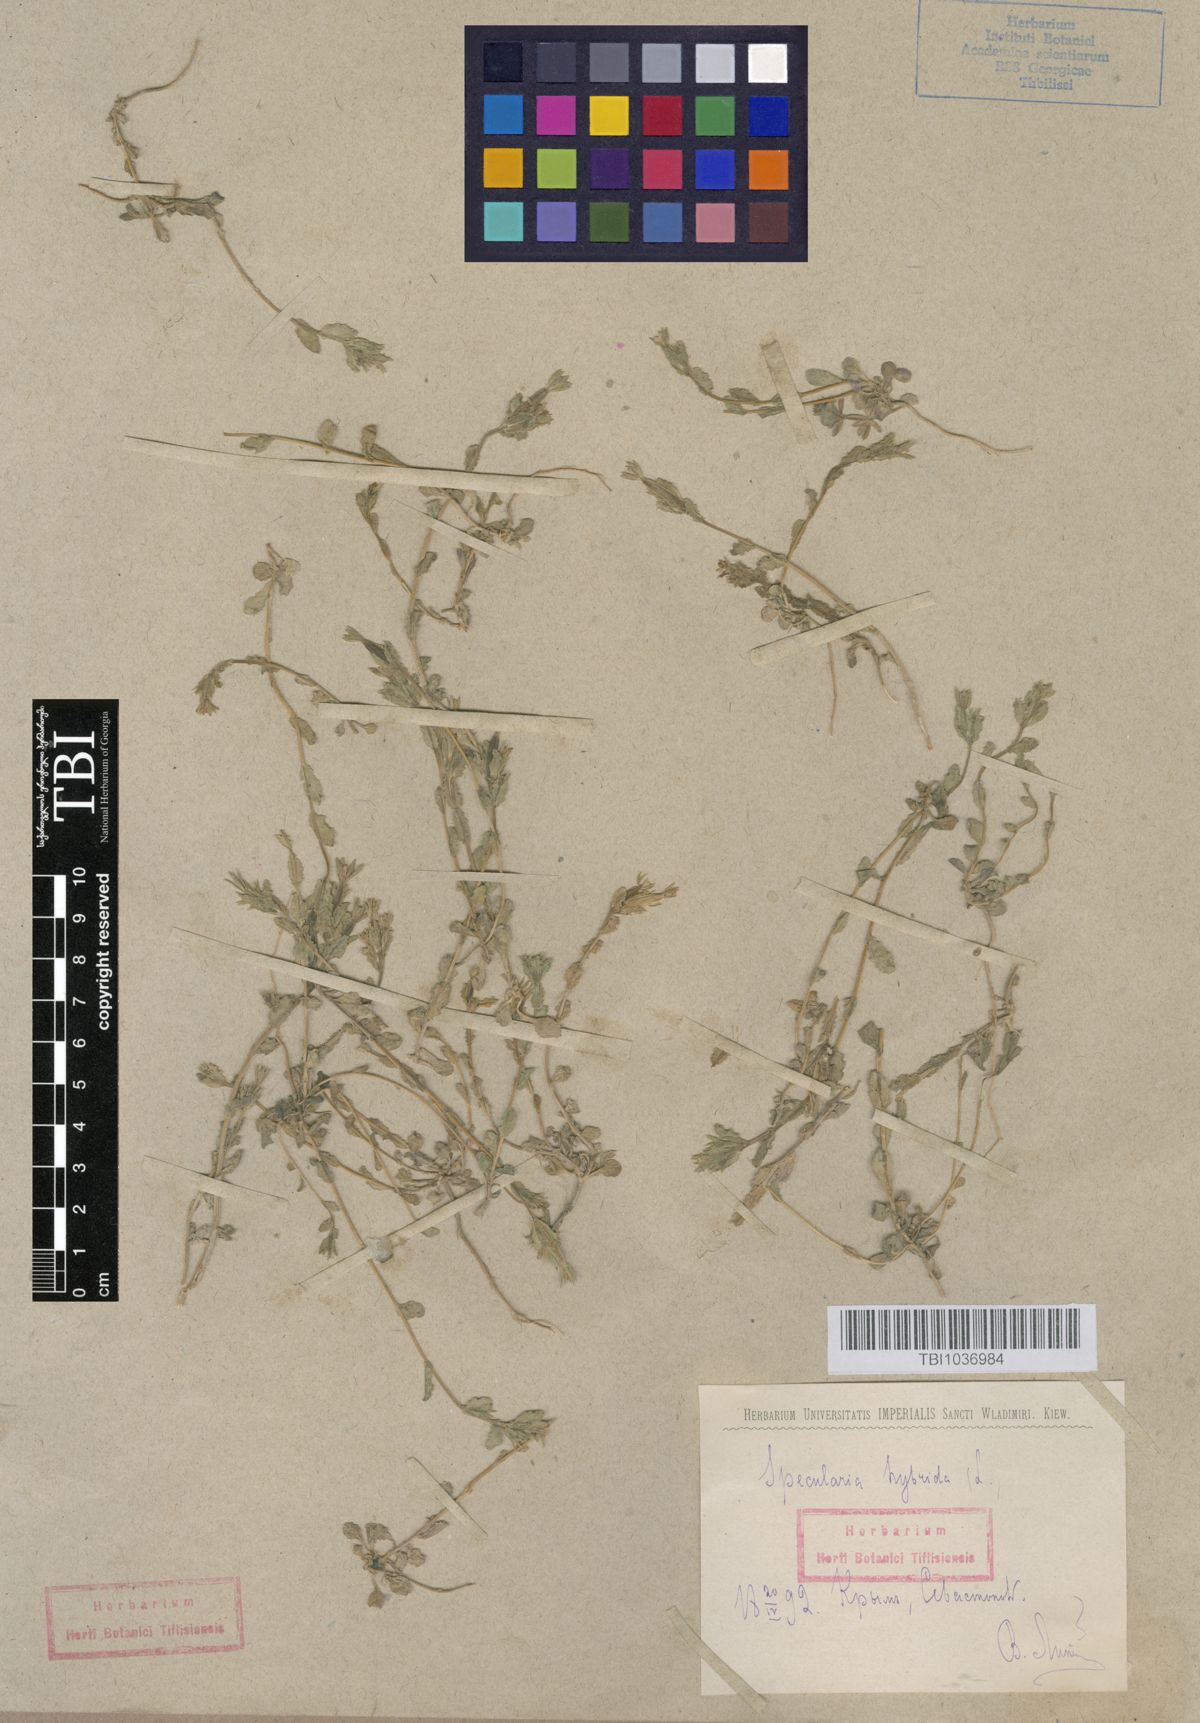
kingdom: Plantae
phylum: Tracheophyta
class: Magnoliopsida
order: Asterales
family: Campanulaceae
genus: Legousia
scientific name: Legousia hybrida
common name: Venus's-looking-glass
